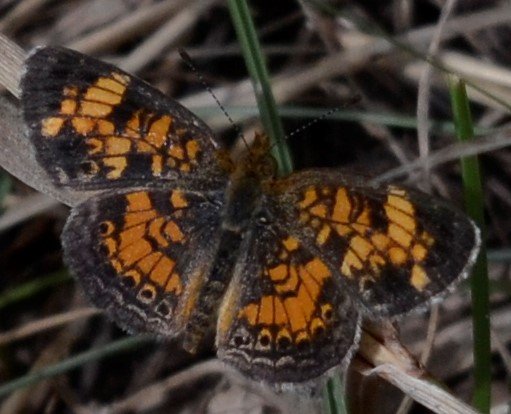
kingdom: Animalia
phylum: Arthropoda
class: Insecta
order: Lepidoptera
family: Nymphalidae
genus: Phyciodes
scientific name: Phyciodes
